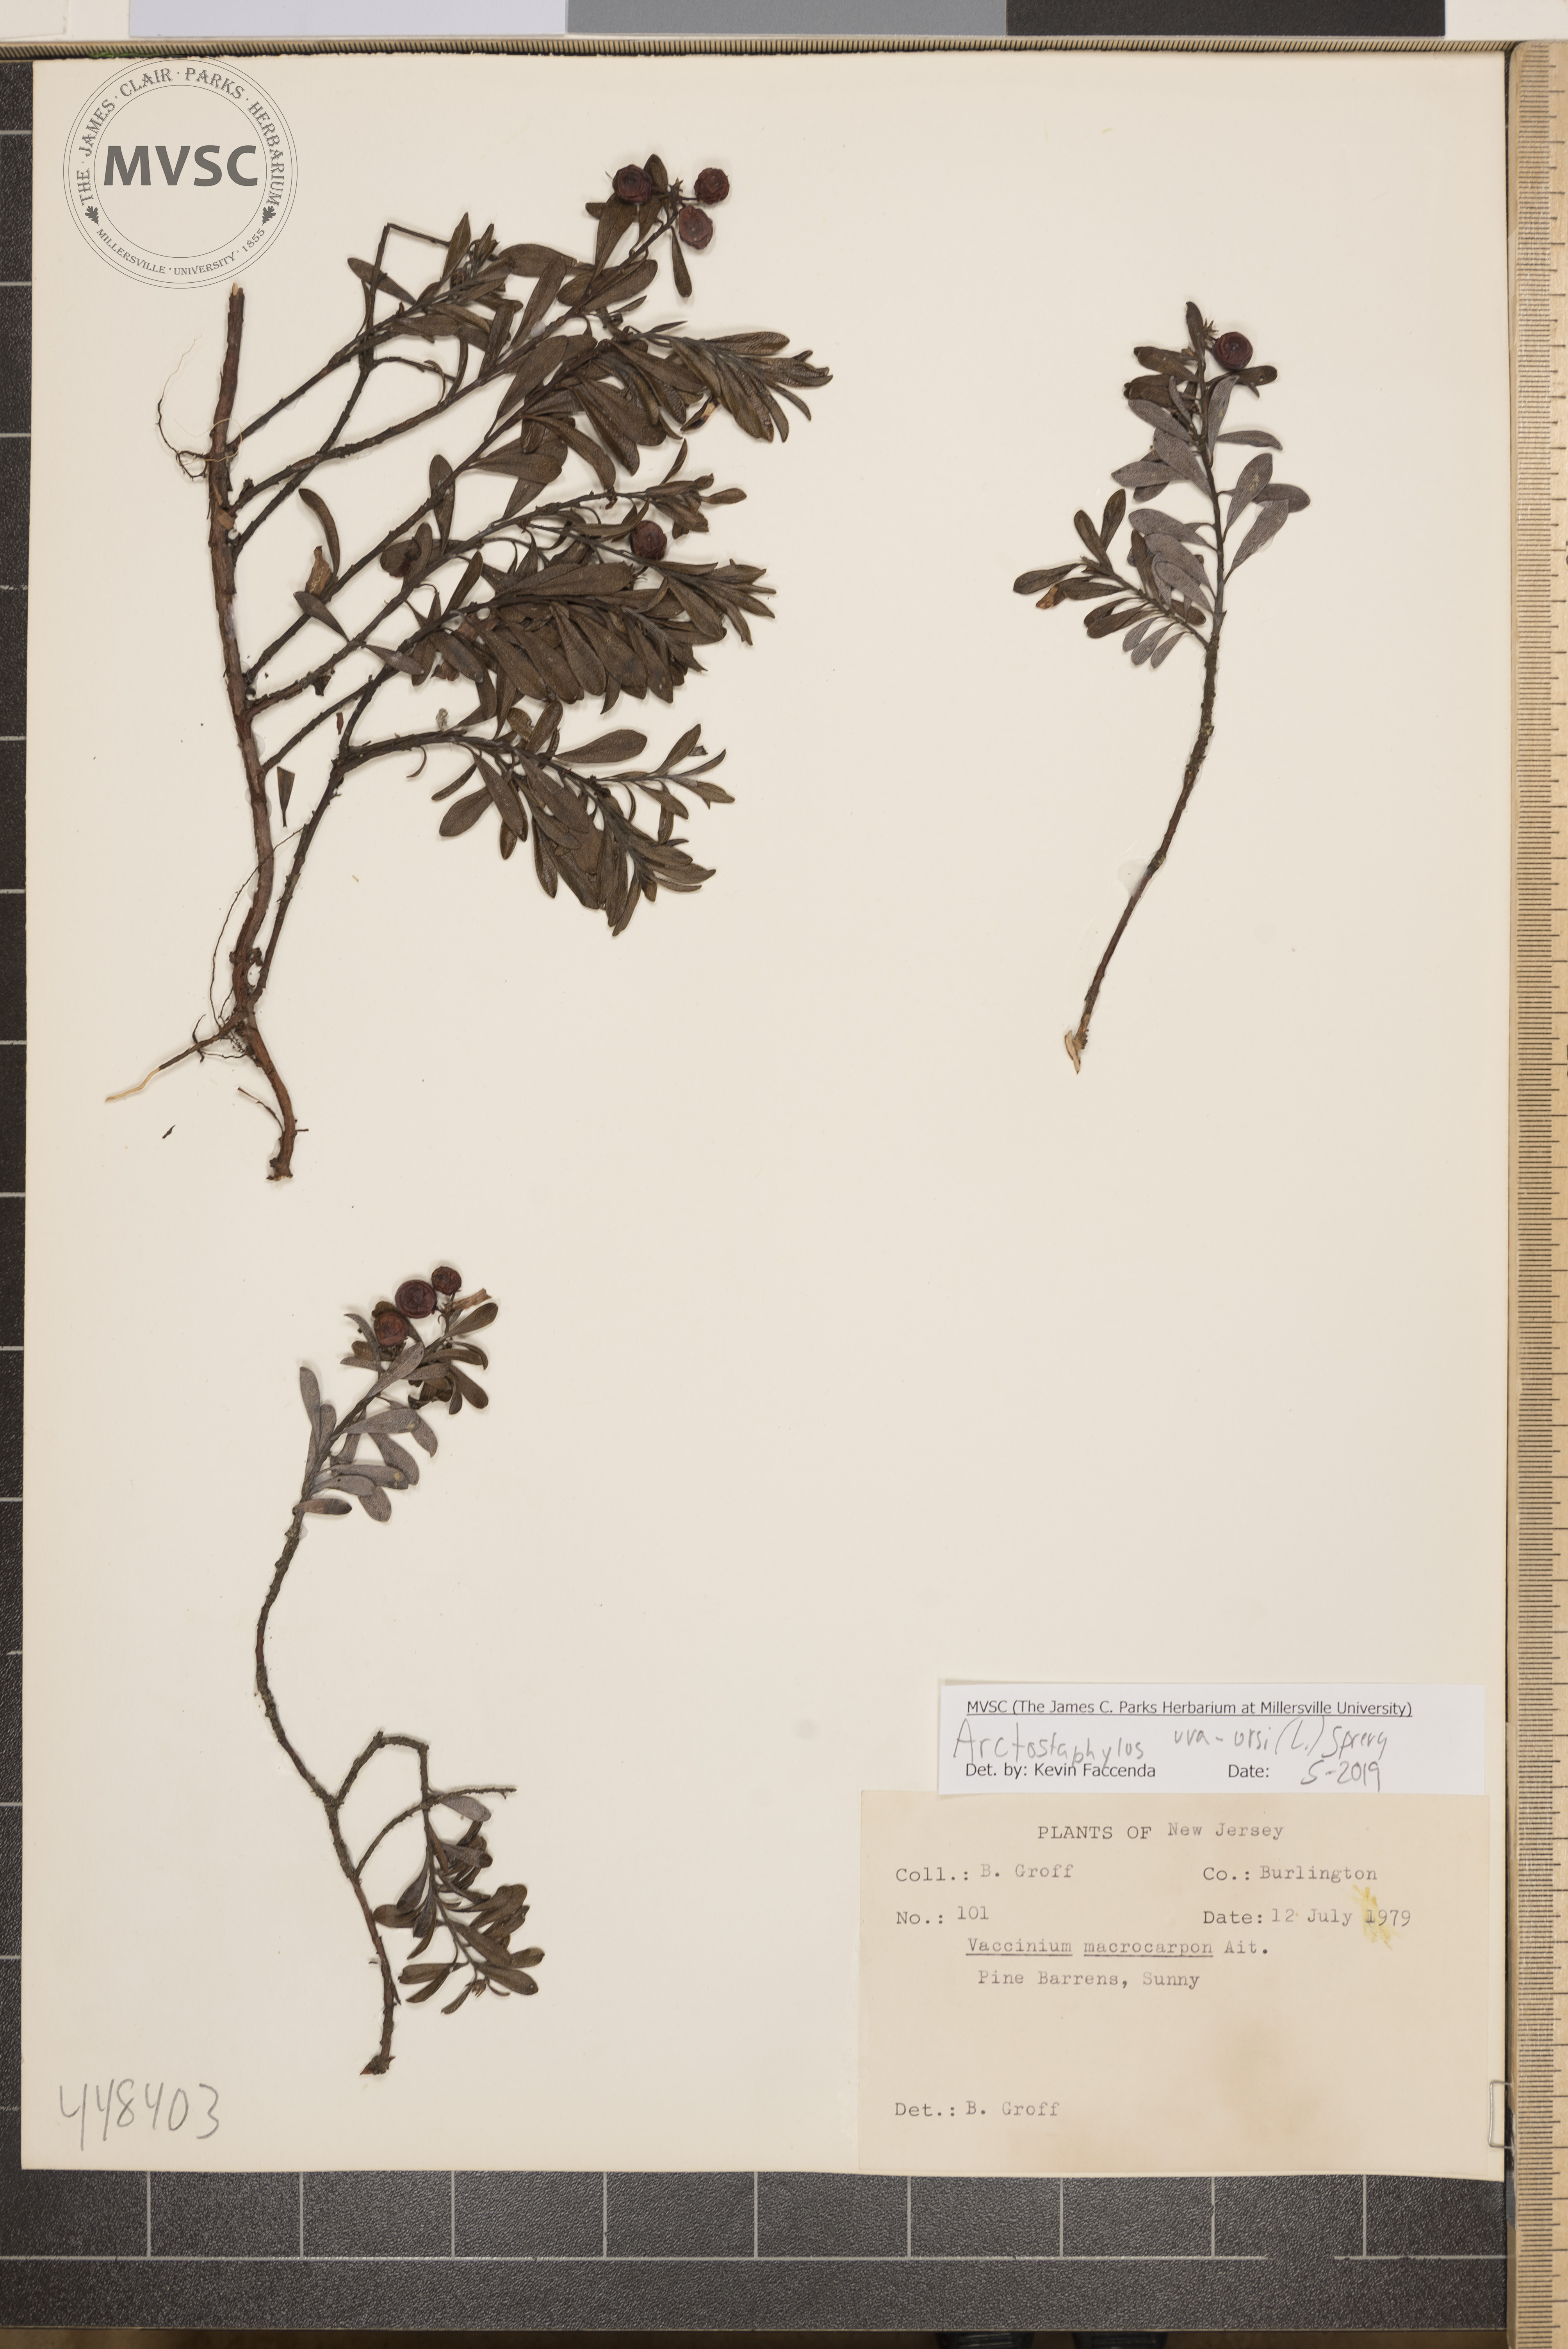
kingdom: Plantae
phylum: Tracheophyta
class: Magnoliopsida
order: Ericales
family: Ericaceae
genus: Arctostaphylos
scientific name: Arctostaphylos uva-ursi
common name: Bearberry
